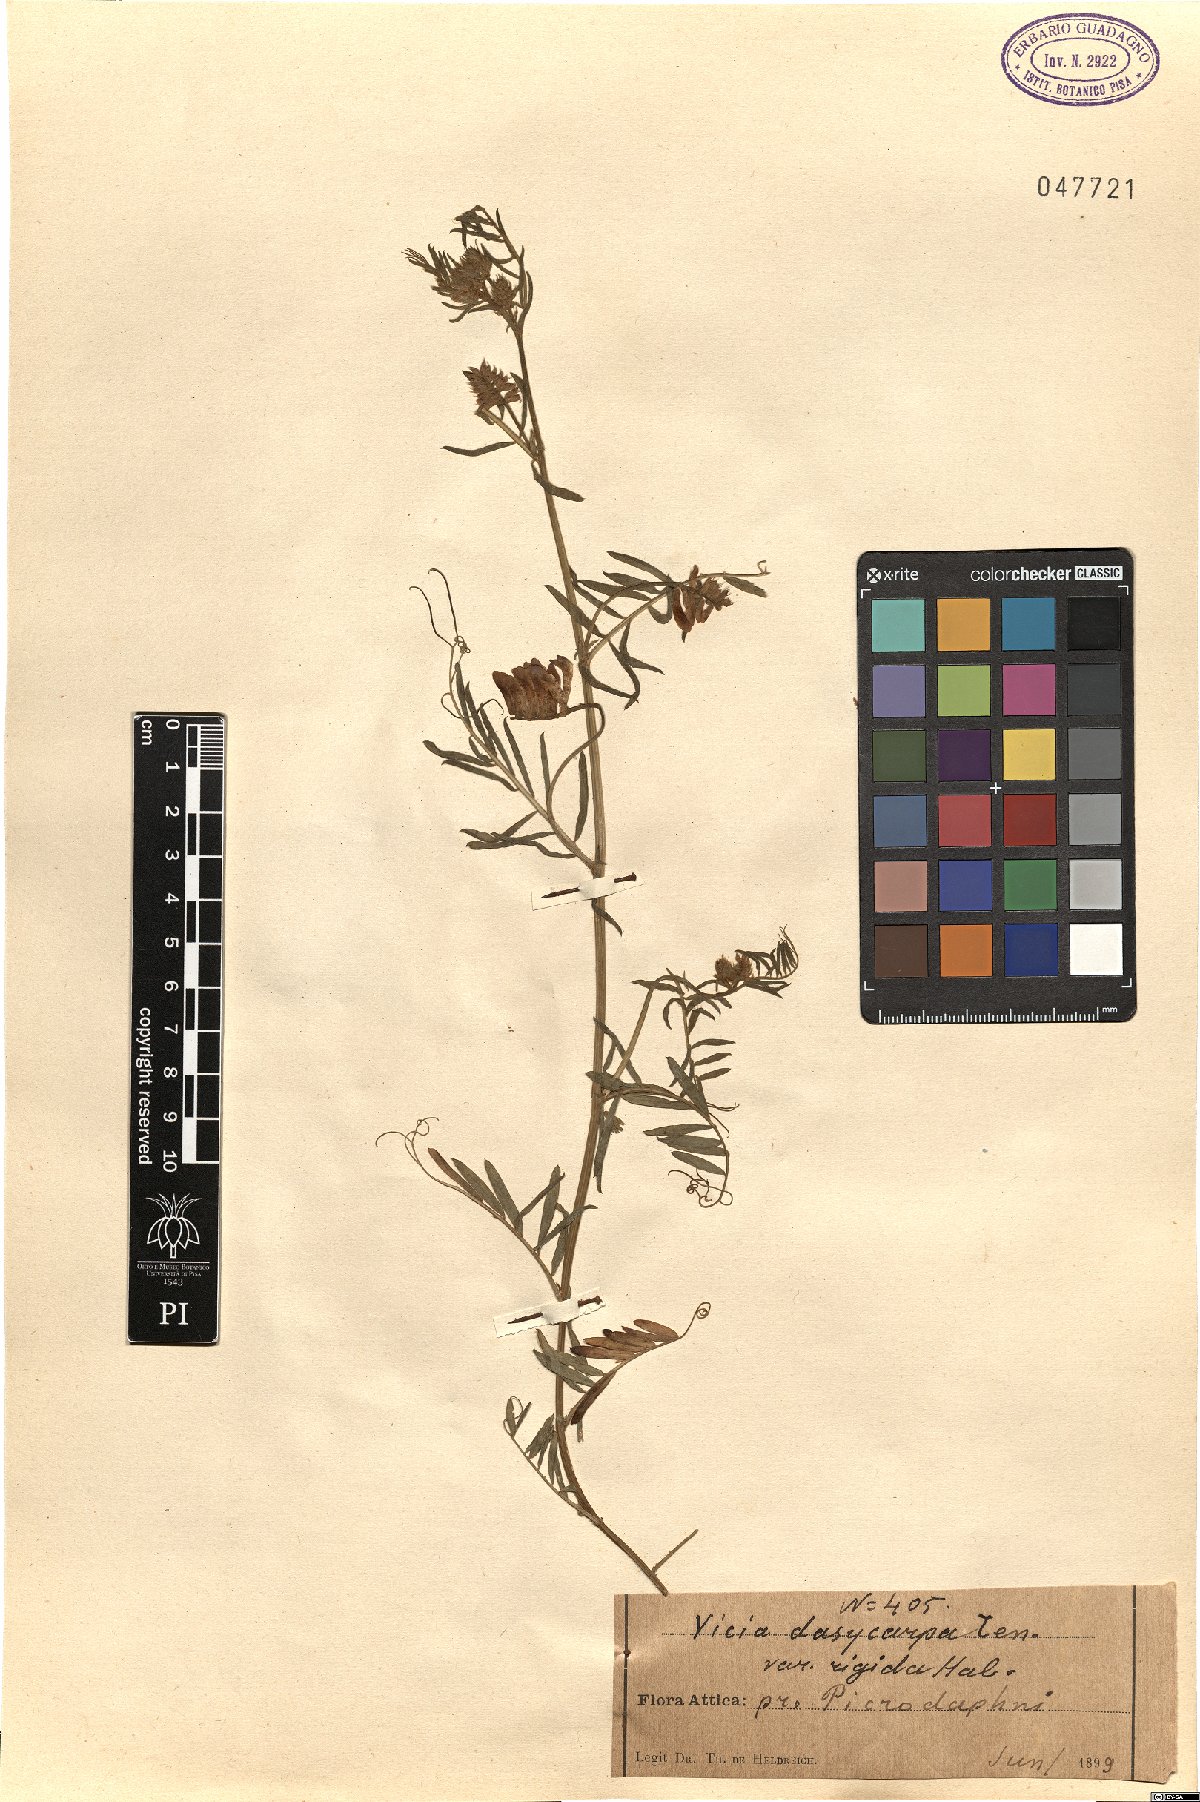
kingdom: Plantae
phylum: Tracheophyta
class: Magnoliopsida
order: Fabales
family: Fabaceae
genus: Vicia
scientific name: Vicia villosa
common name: Fodder vetch
